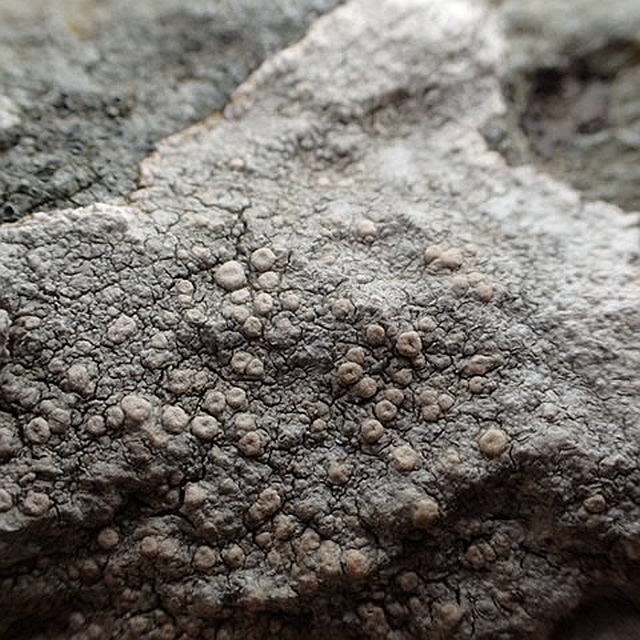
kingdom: Fungi
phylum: Ascomycota
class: Lecanoromycetes
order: Pertusariales
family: Ochrolechiaceae
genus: Ochrolechia
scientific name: Ochrolechia parella
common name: almindelig blegskivelav
